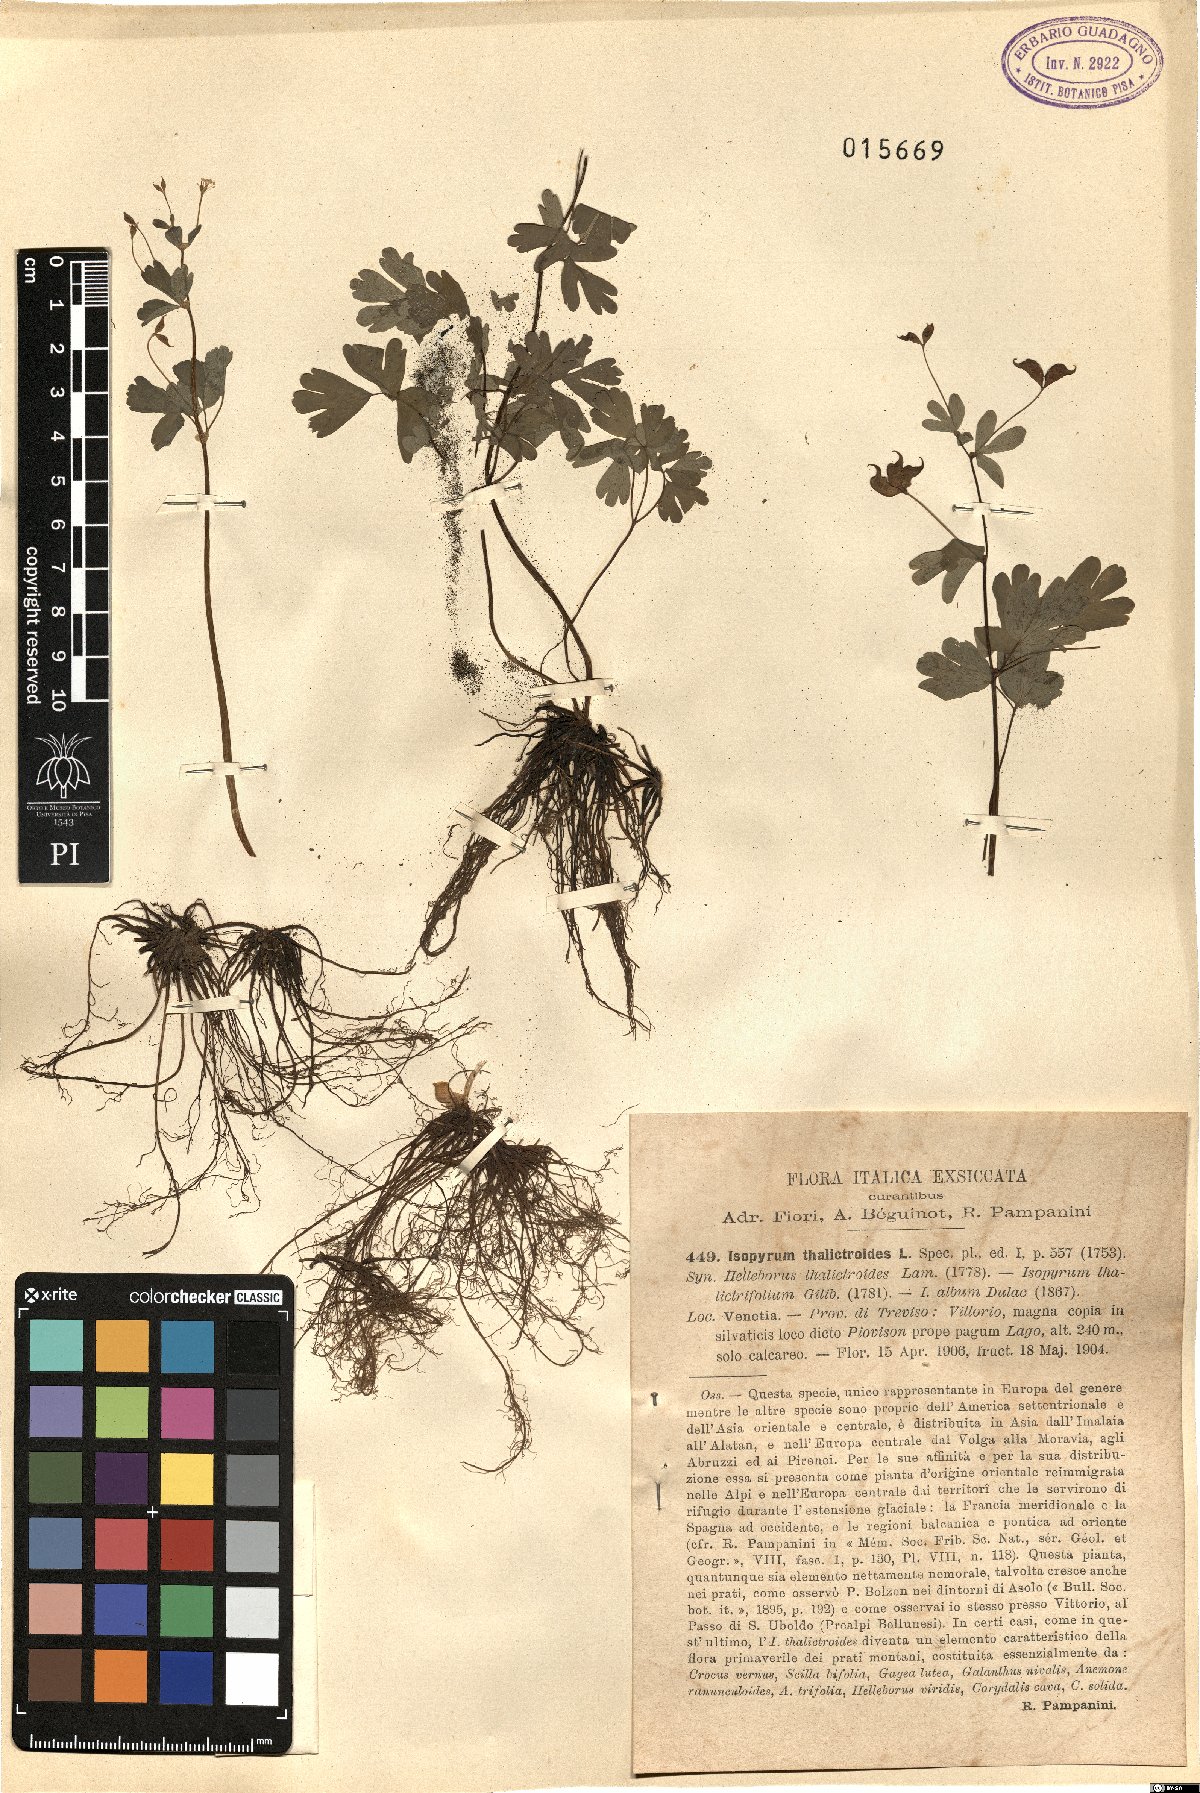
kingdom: Plantae
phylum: Tracheophyta
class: Magnoliopsida
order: Ranunculales
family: Ranunculaceae
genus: Isopyrum
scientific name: Isopyrum thalictroides
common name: Isopyrum
